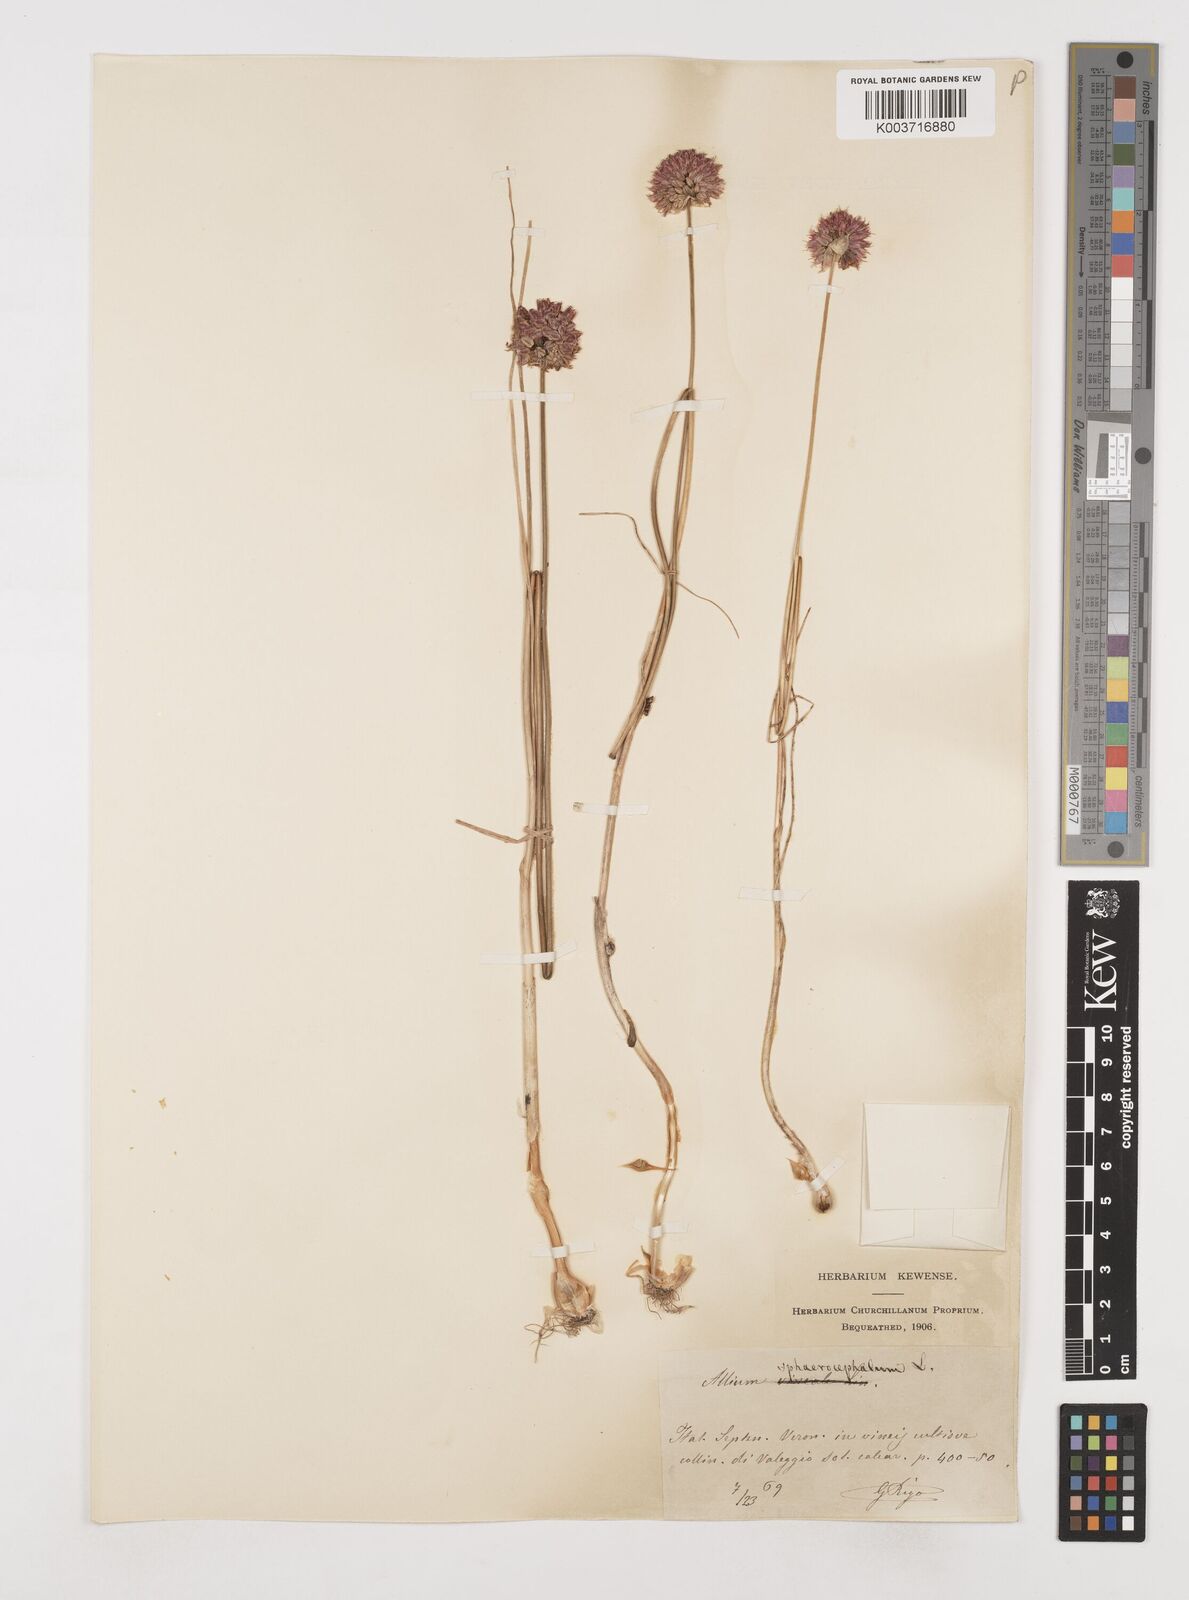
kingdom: Plantae
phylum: Tracheophyta
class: Liliopsida
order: Asparagales
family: Amaryllidaceae
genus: Allium
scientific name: Allium sphaerocephalon
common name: Round-headed leek
